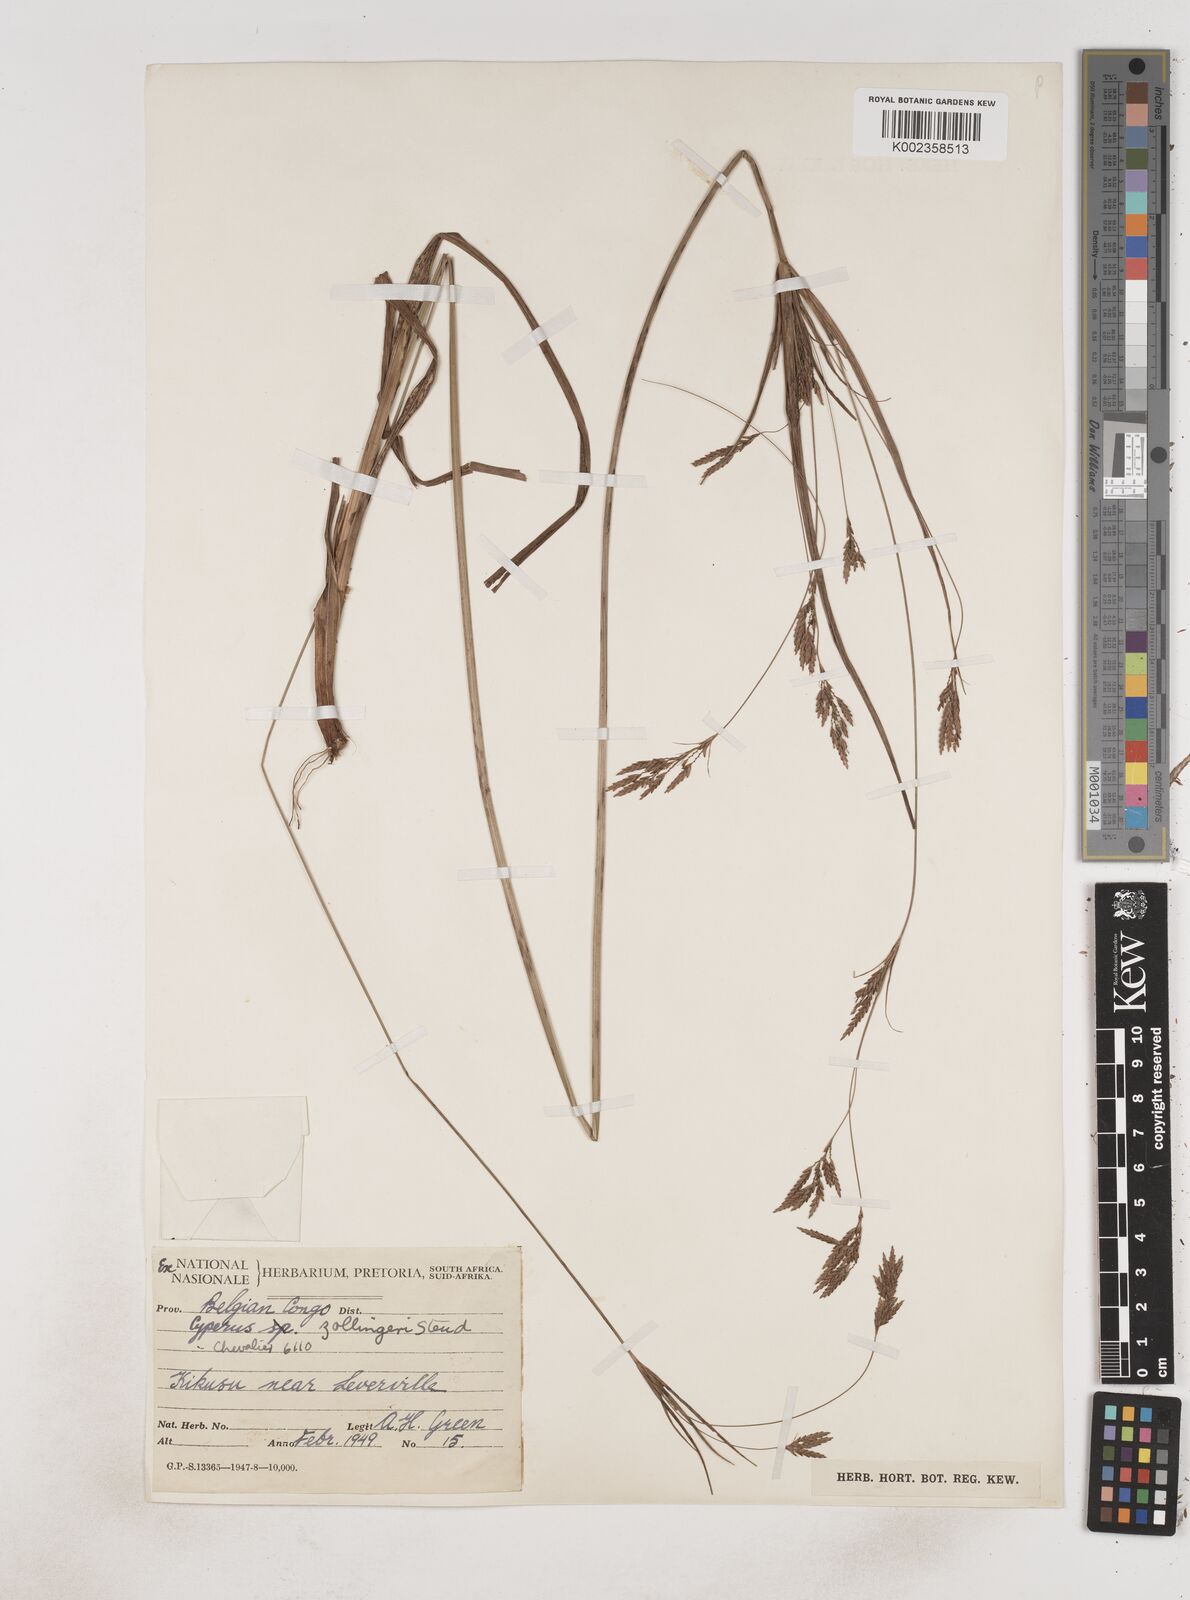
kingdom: Plantae
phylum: Tracheophyta
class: Liliopsida
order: Poales
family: Cyperaceae
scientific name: Cyperaceae
